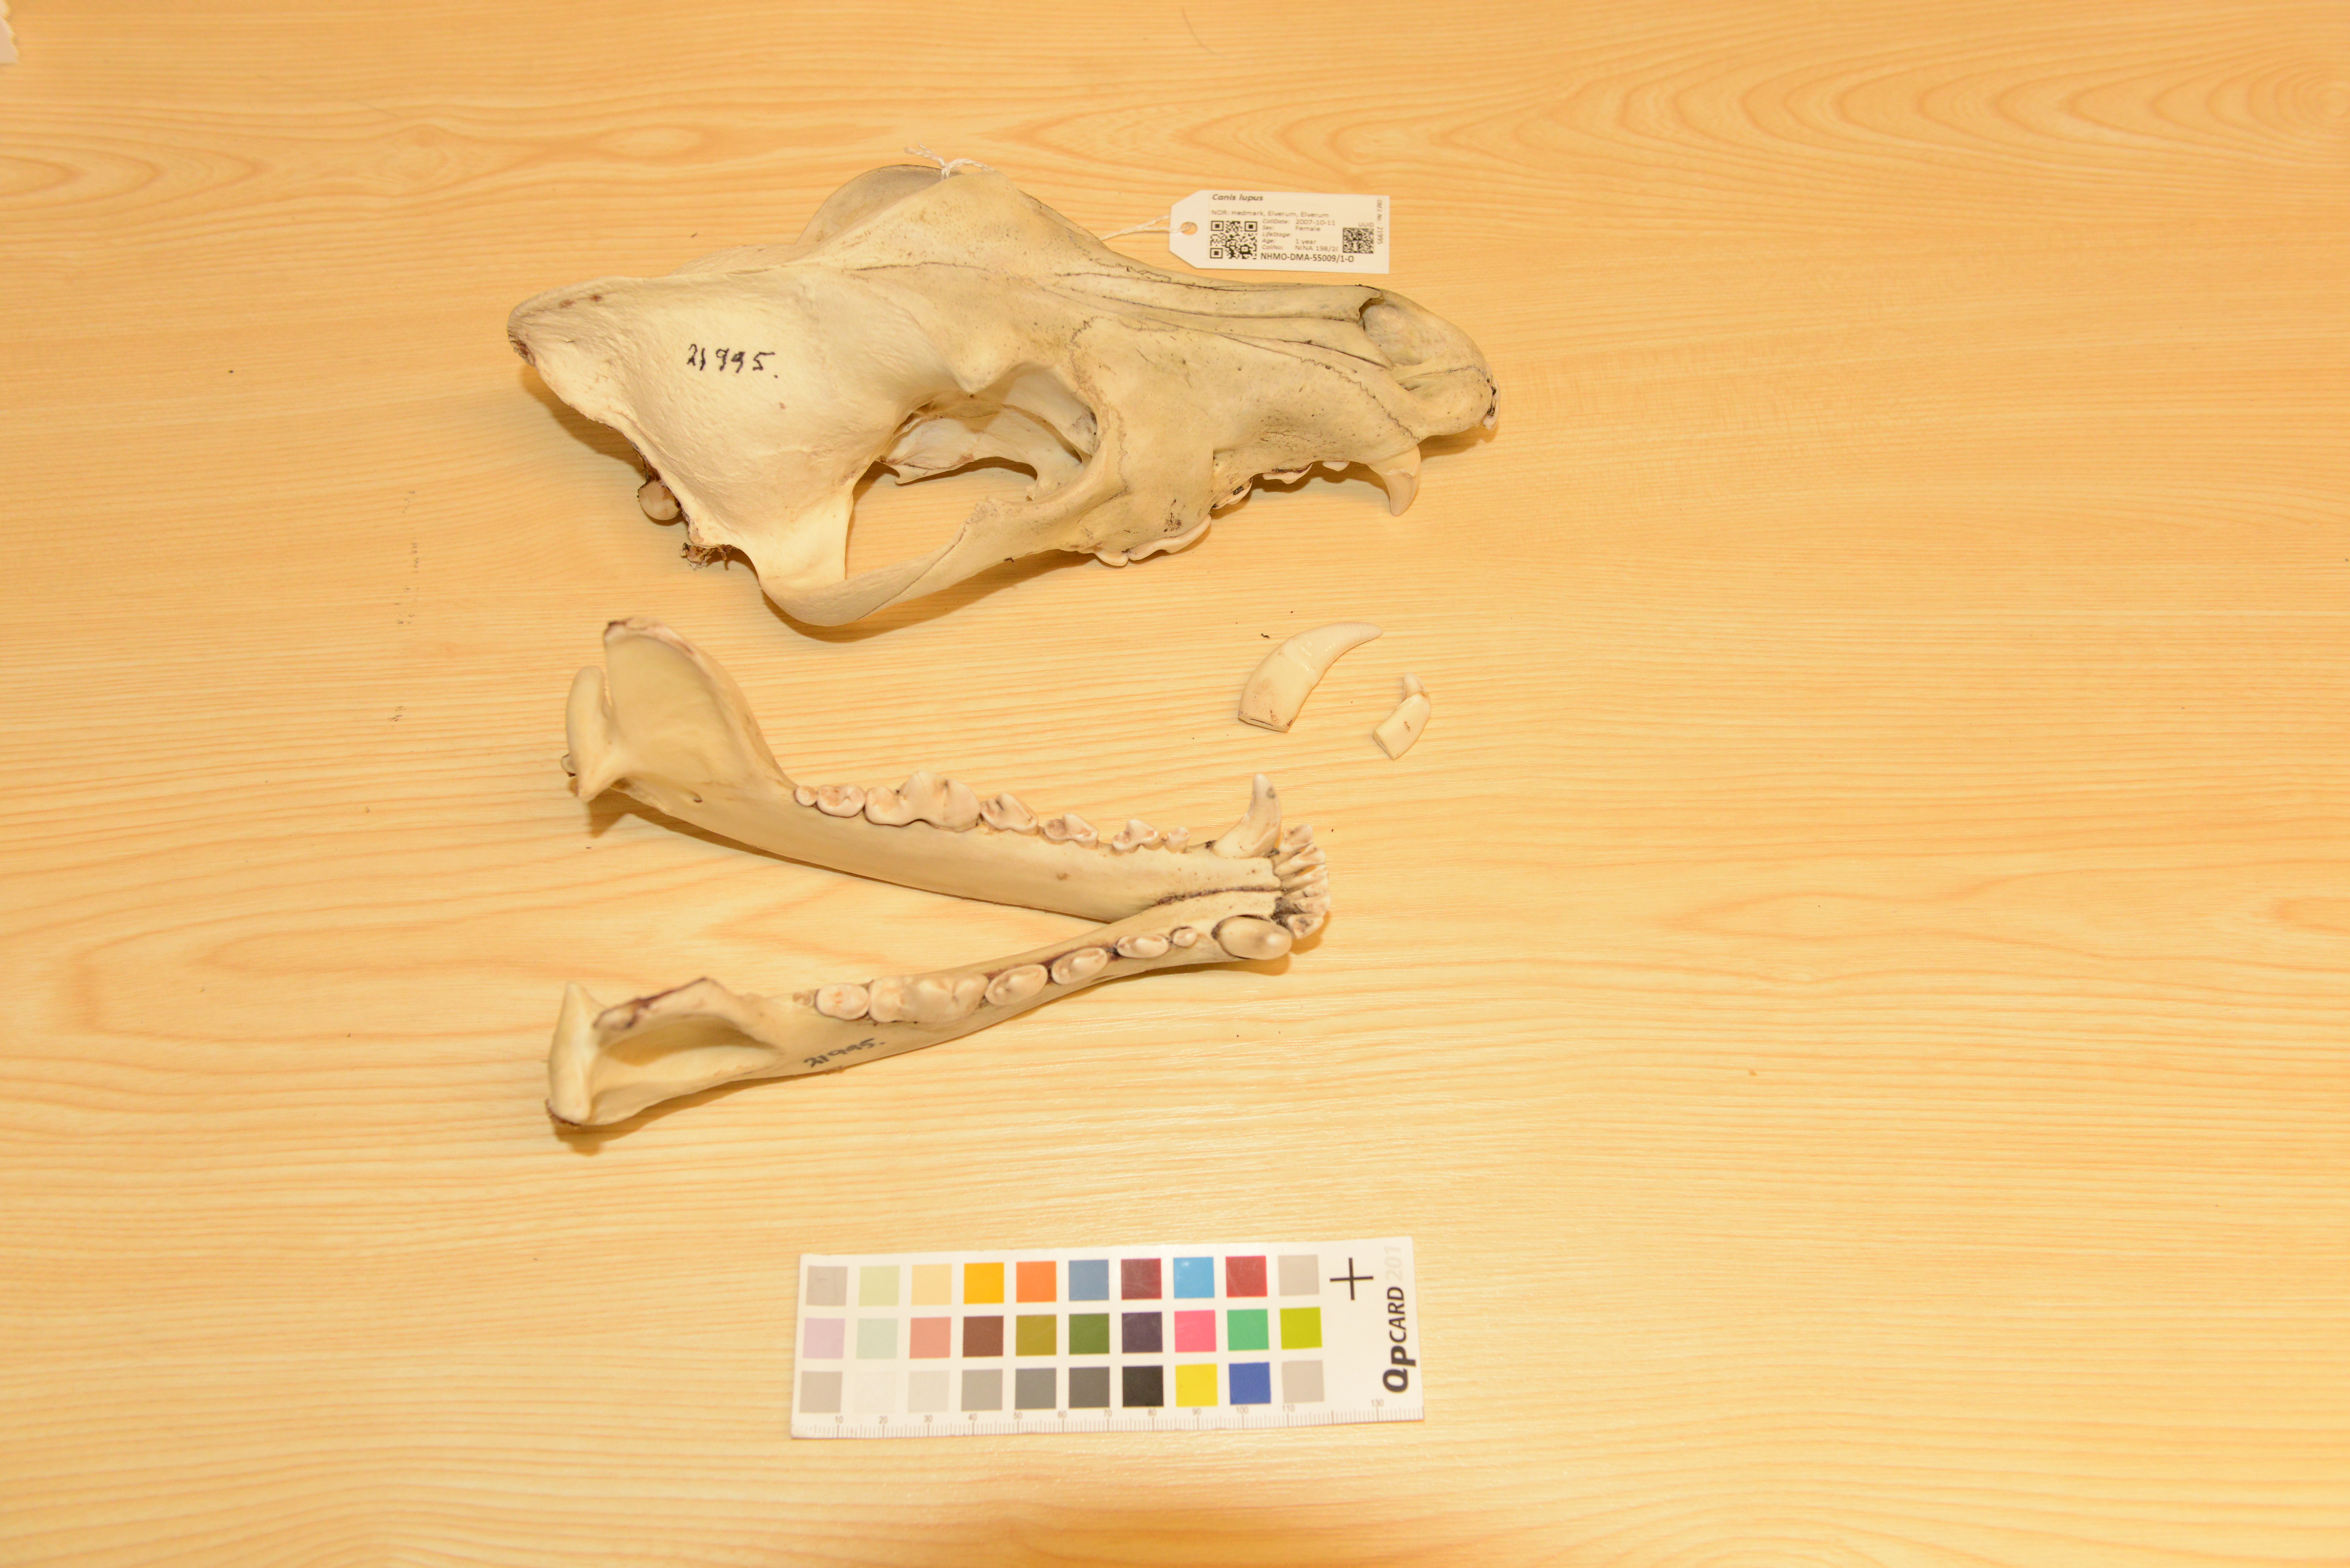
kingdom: Animalia
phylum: Chordata
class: Mammalia
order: Carnivora
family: Canidae
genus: Canis
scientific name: Canis lupus
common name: Gray wolf
